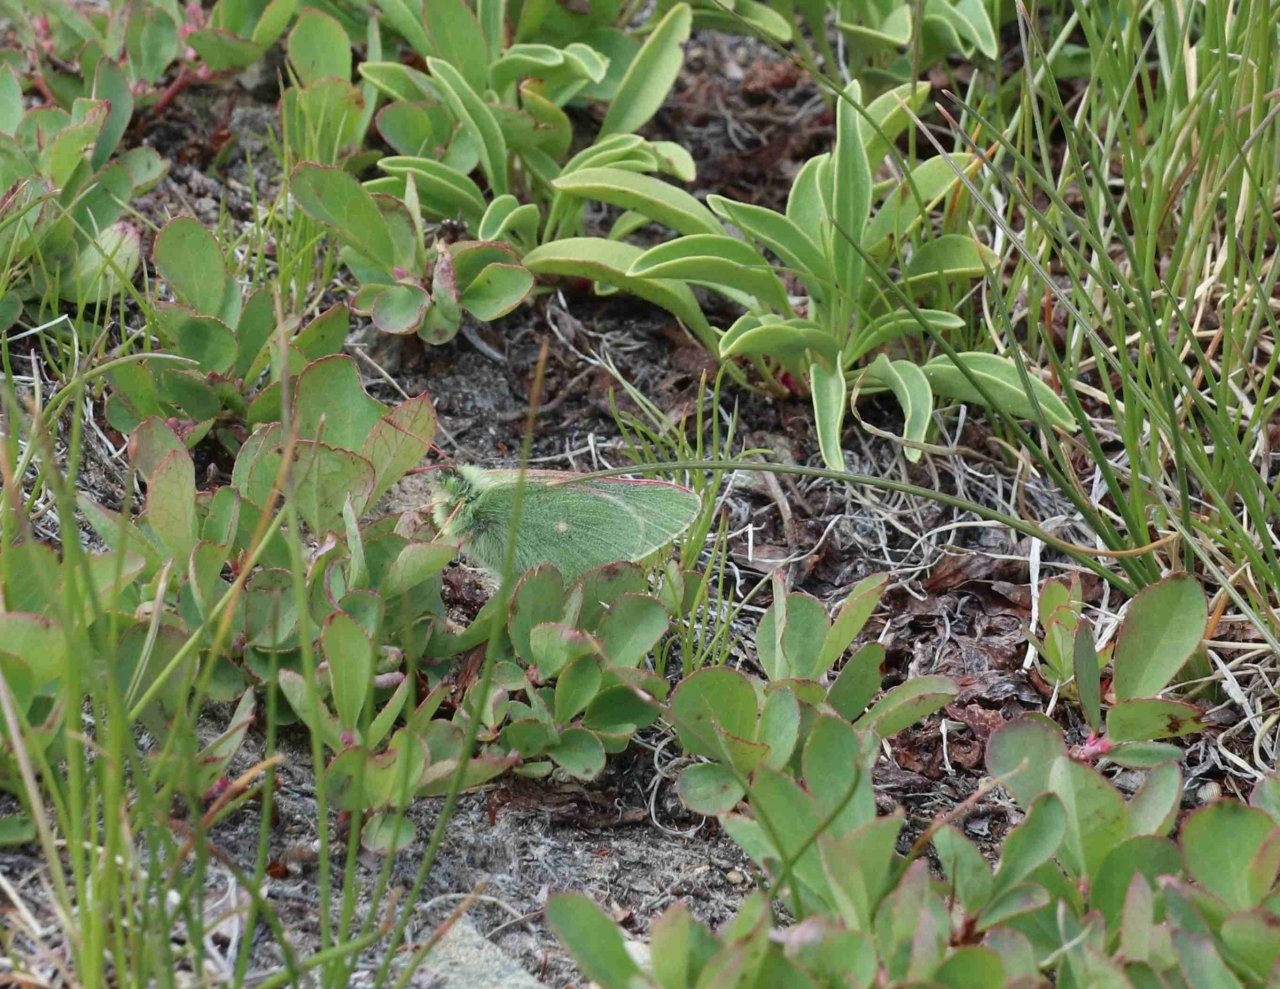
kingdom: Animalia
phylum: Arthropoda
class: Insecta
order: Lepidoptera
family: Pieridae
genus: Colias
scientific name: Colias behrii
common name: Sierra Sulphur
